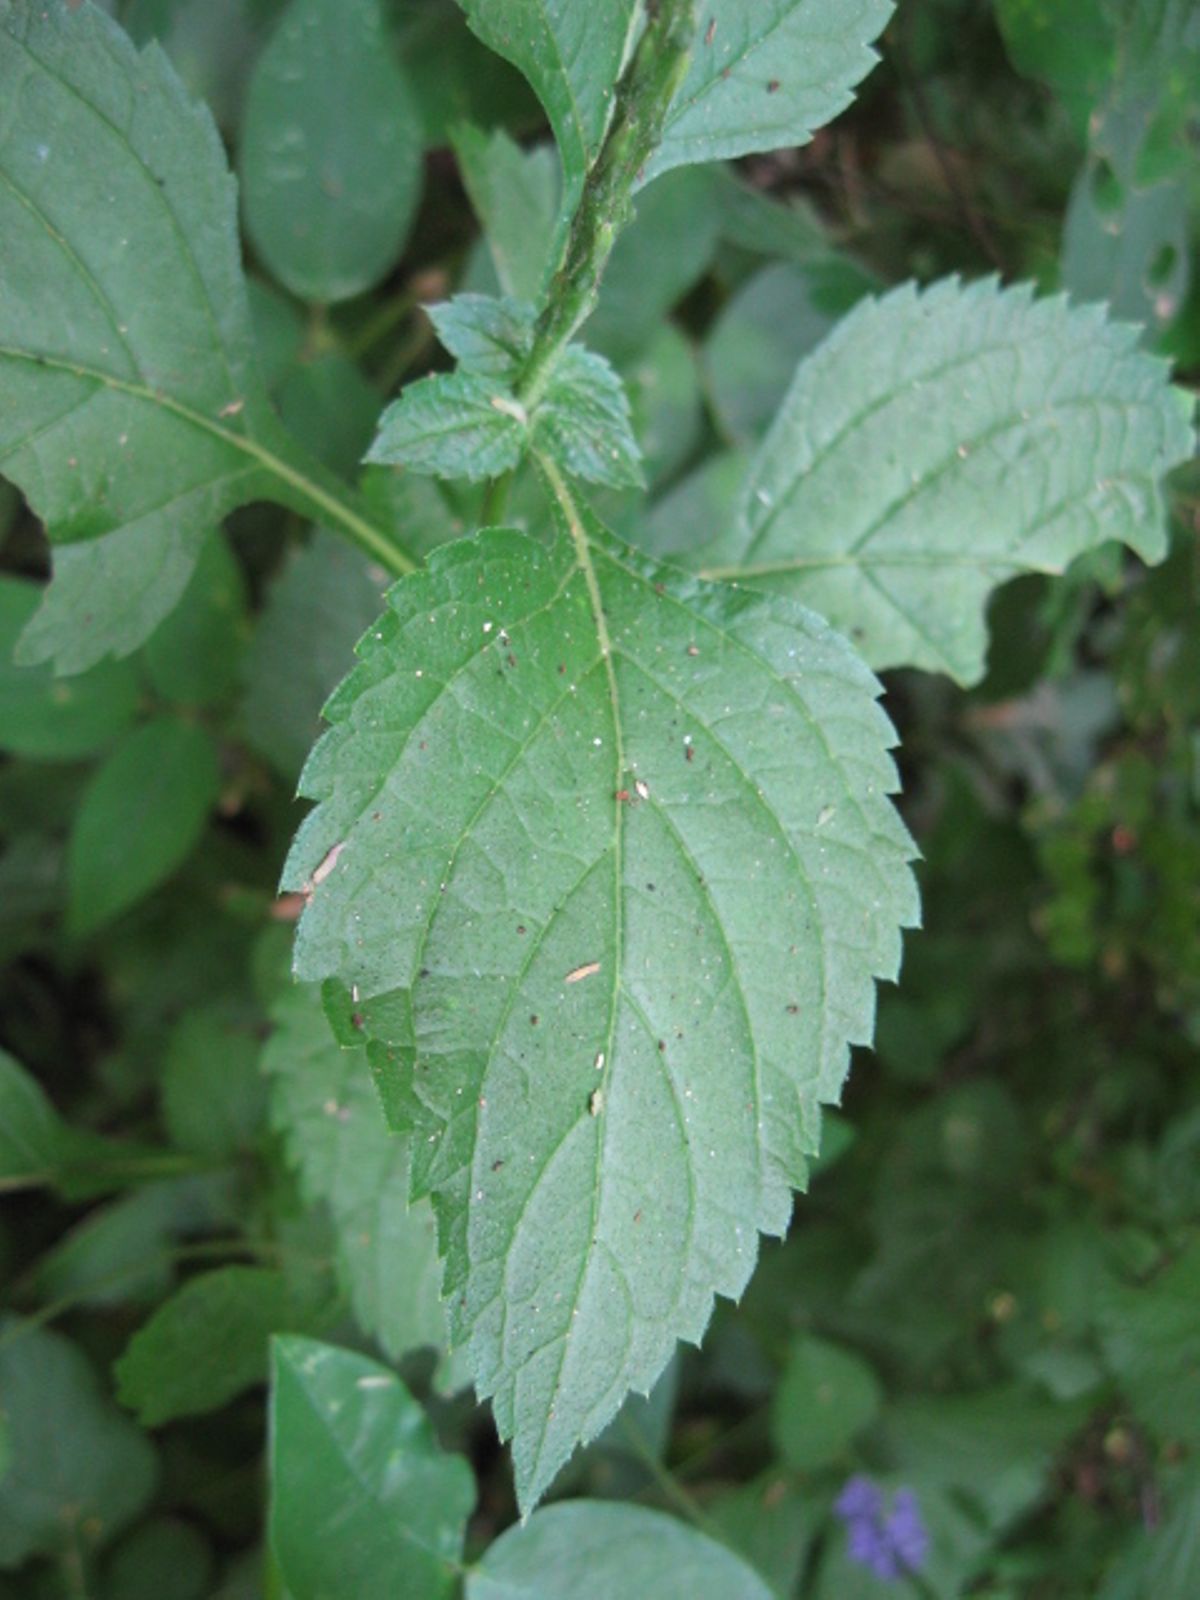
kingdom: Plantae
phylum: Tracheophyta
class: Magnoliopsida
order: Lamiales
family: Verbenaceae
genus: Stachytarpheta
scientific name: Stachytarpheta frantzii
